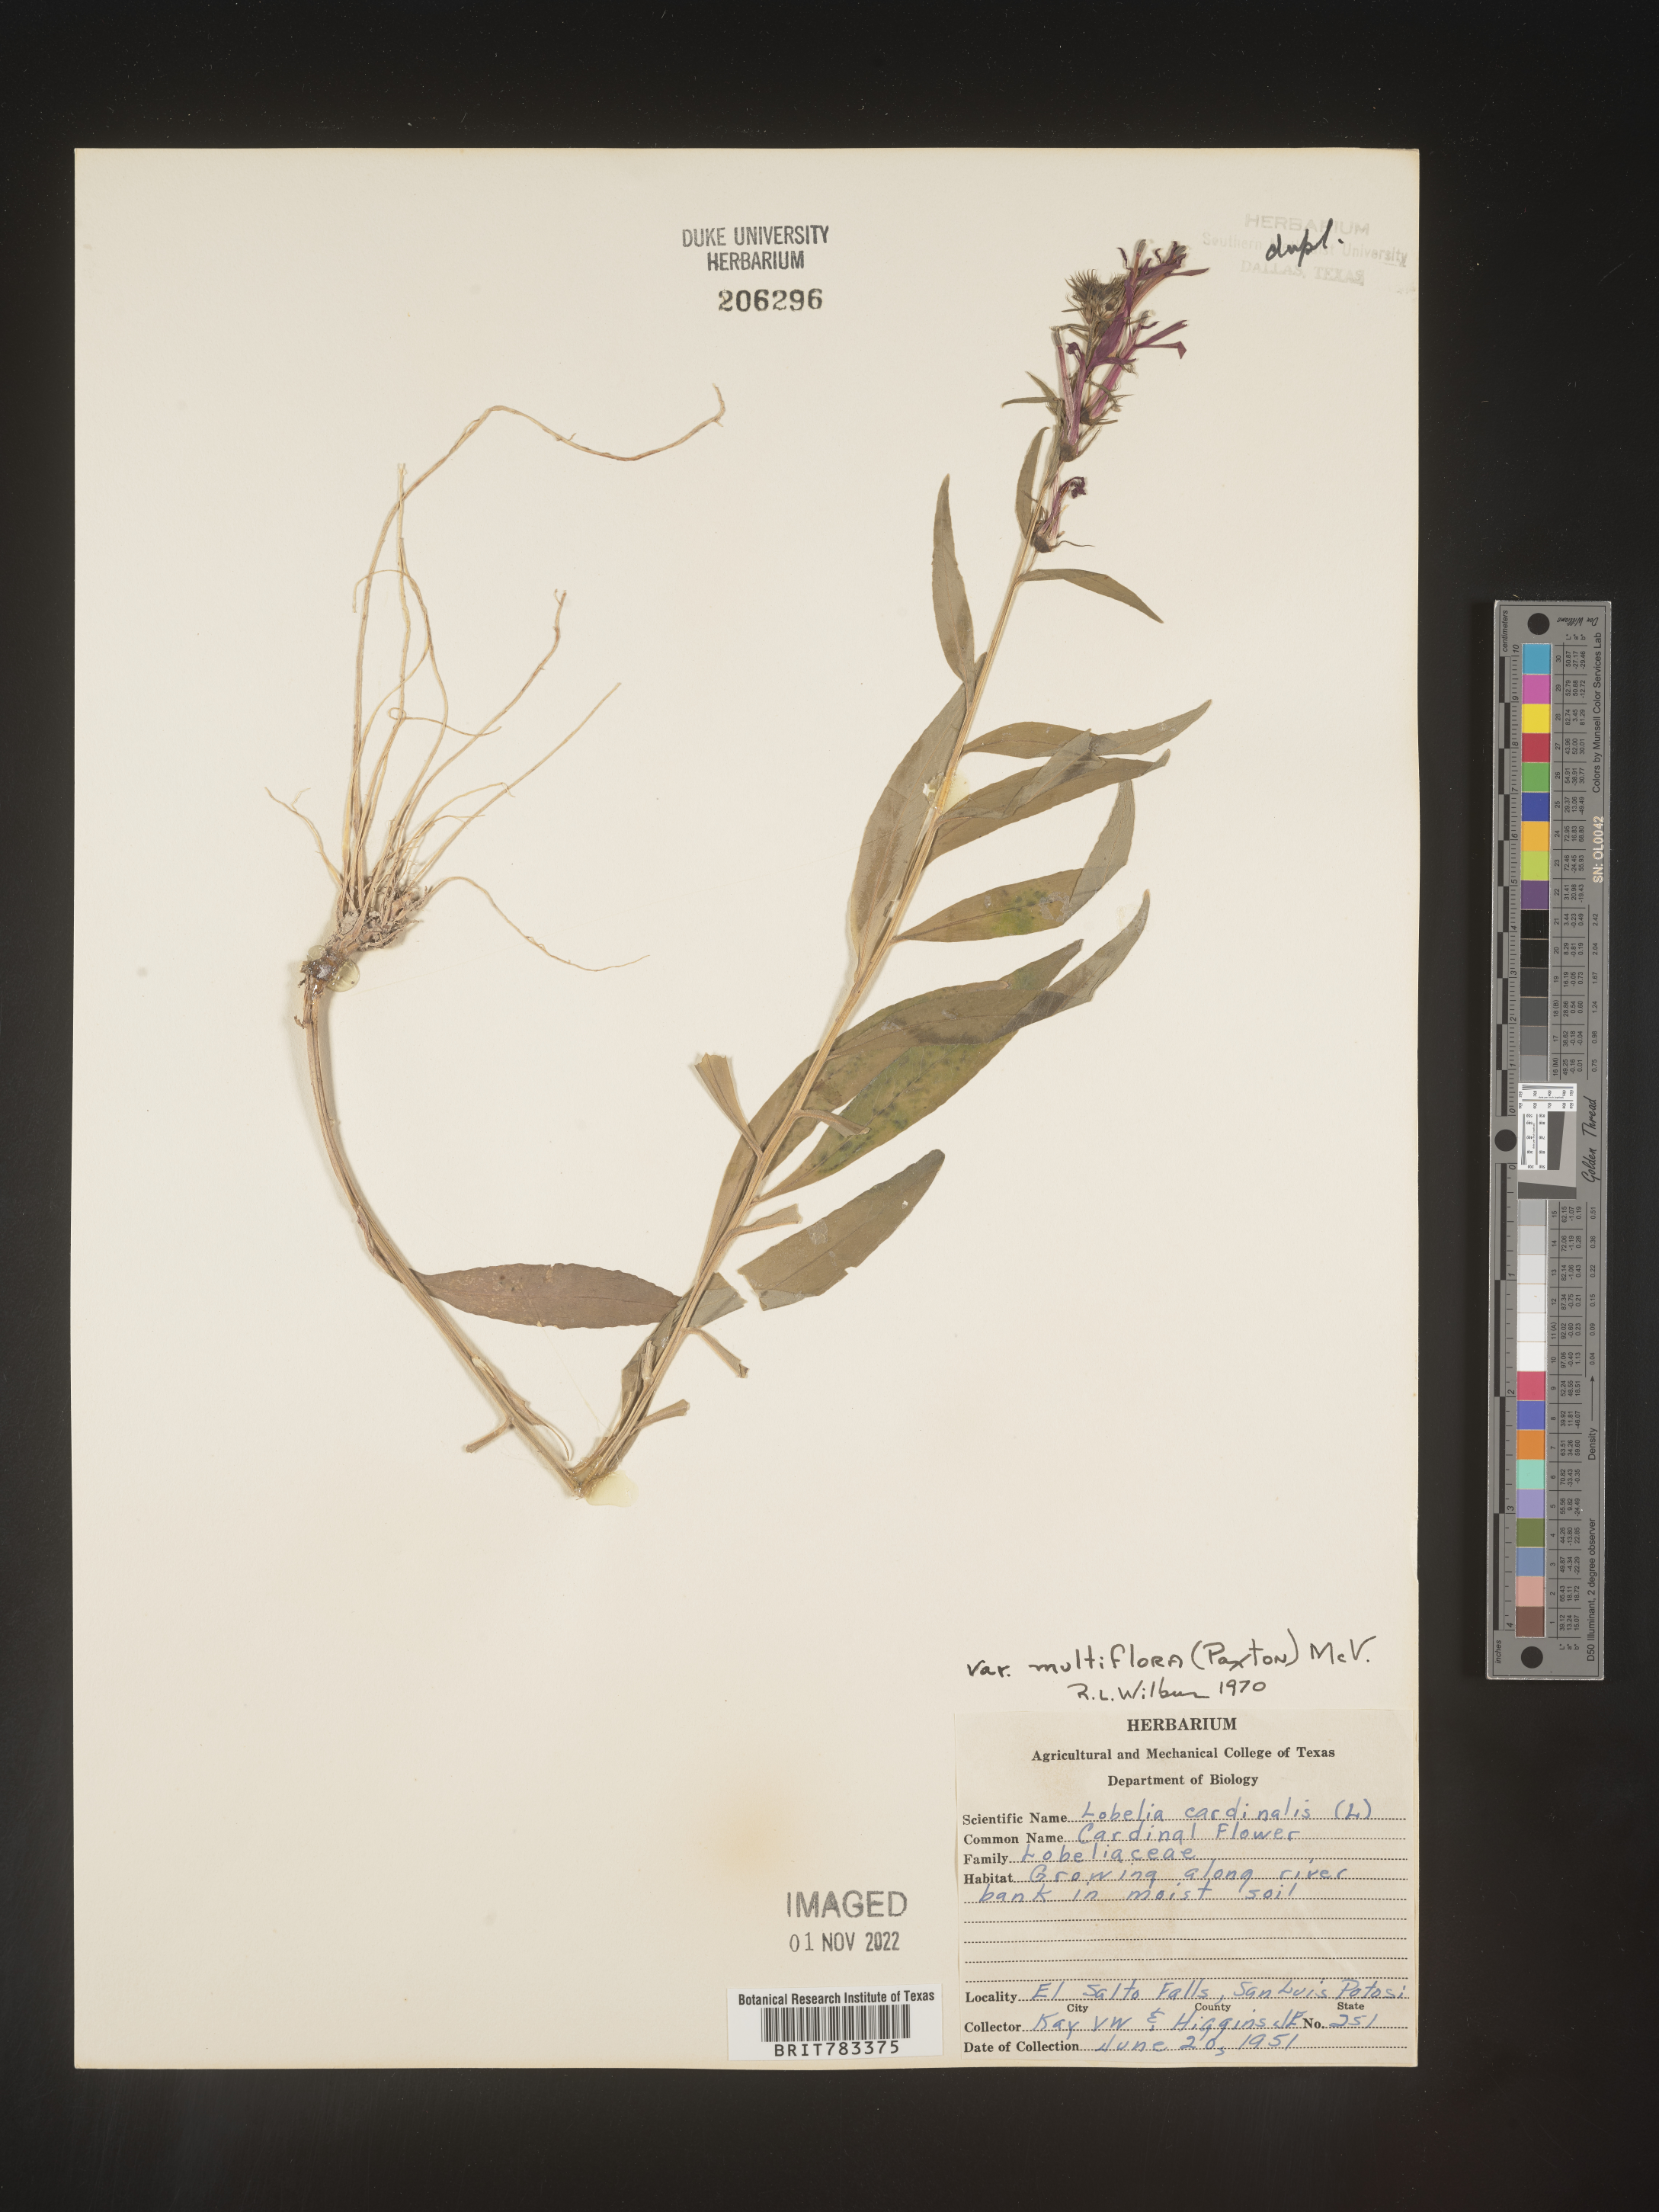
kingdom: Plantae
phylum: Tracheophyta
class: Magnoliopsida
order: Asterales
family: Campanulaceae
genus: Lobelia
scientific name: Lobelia
